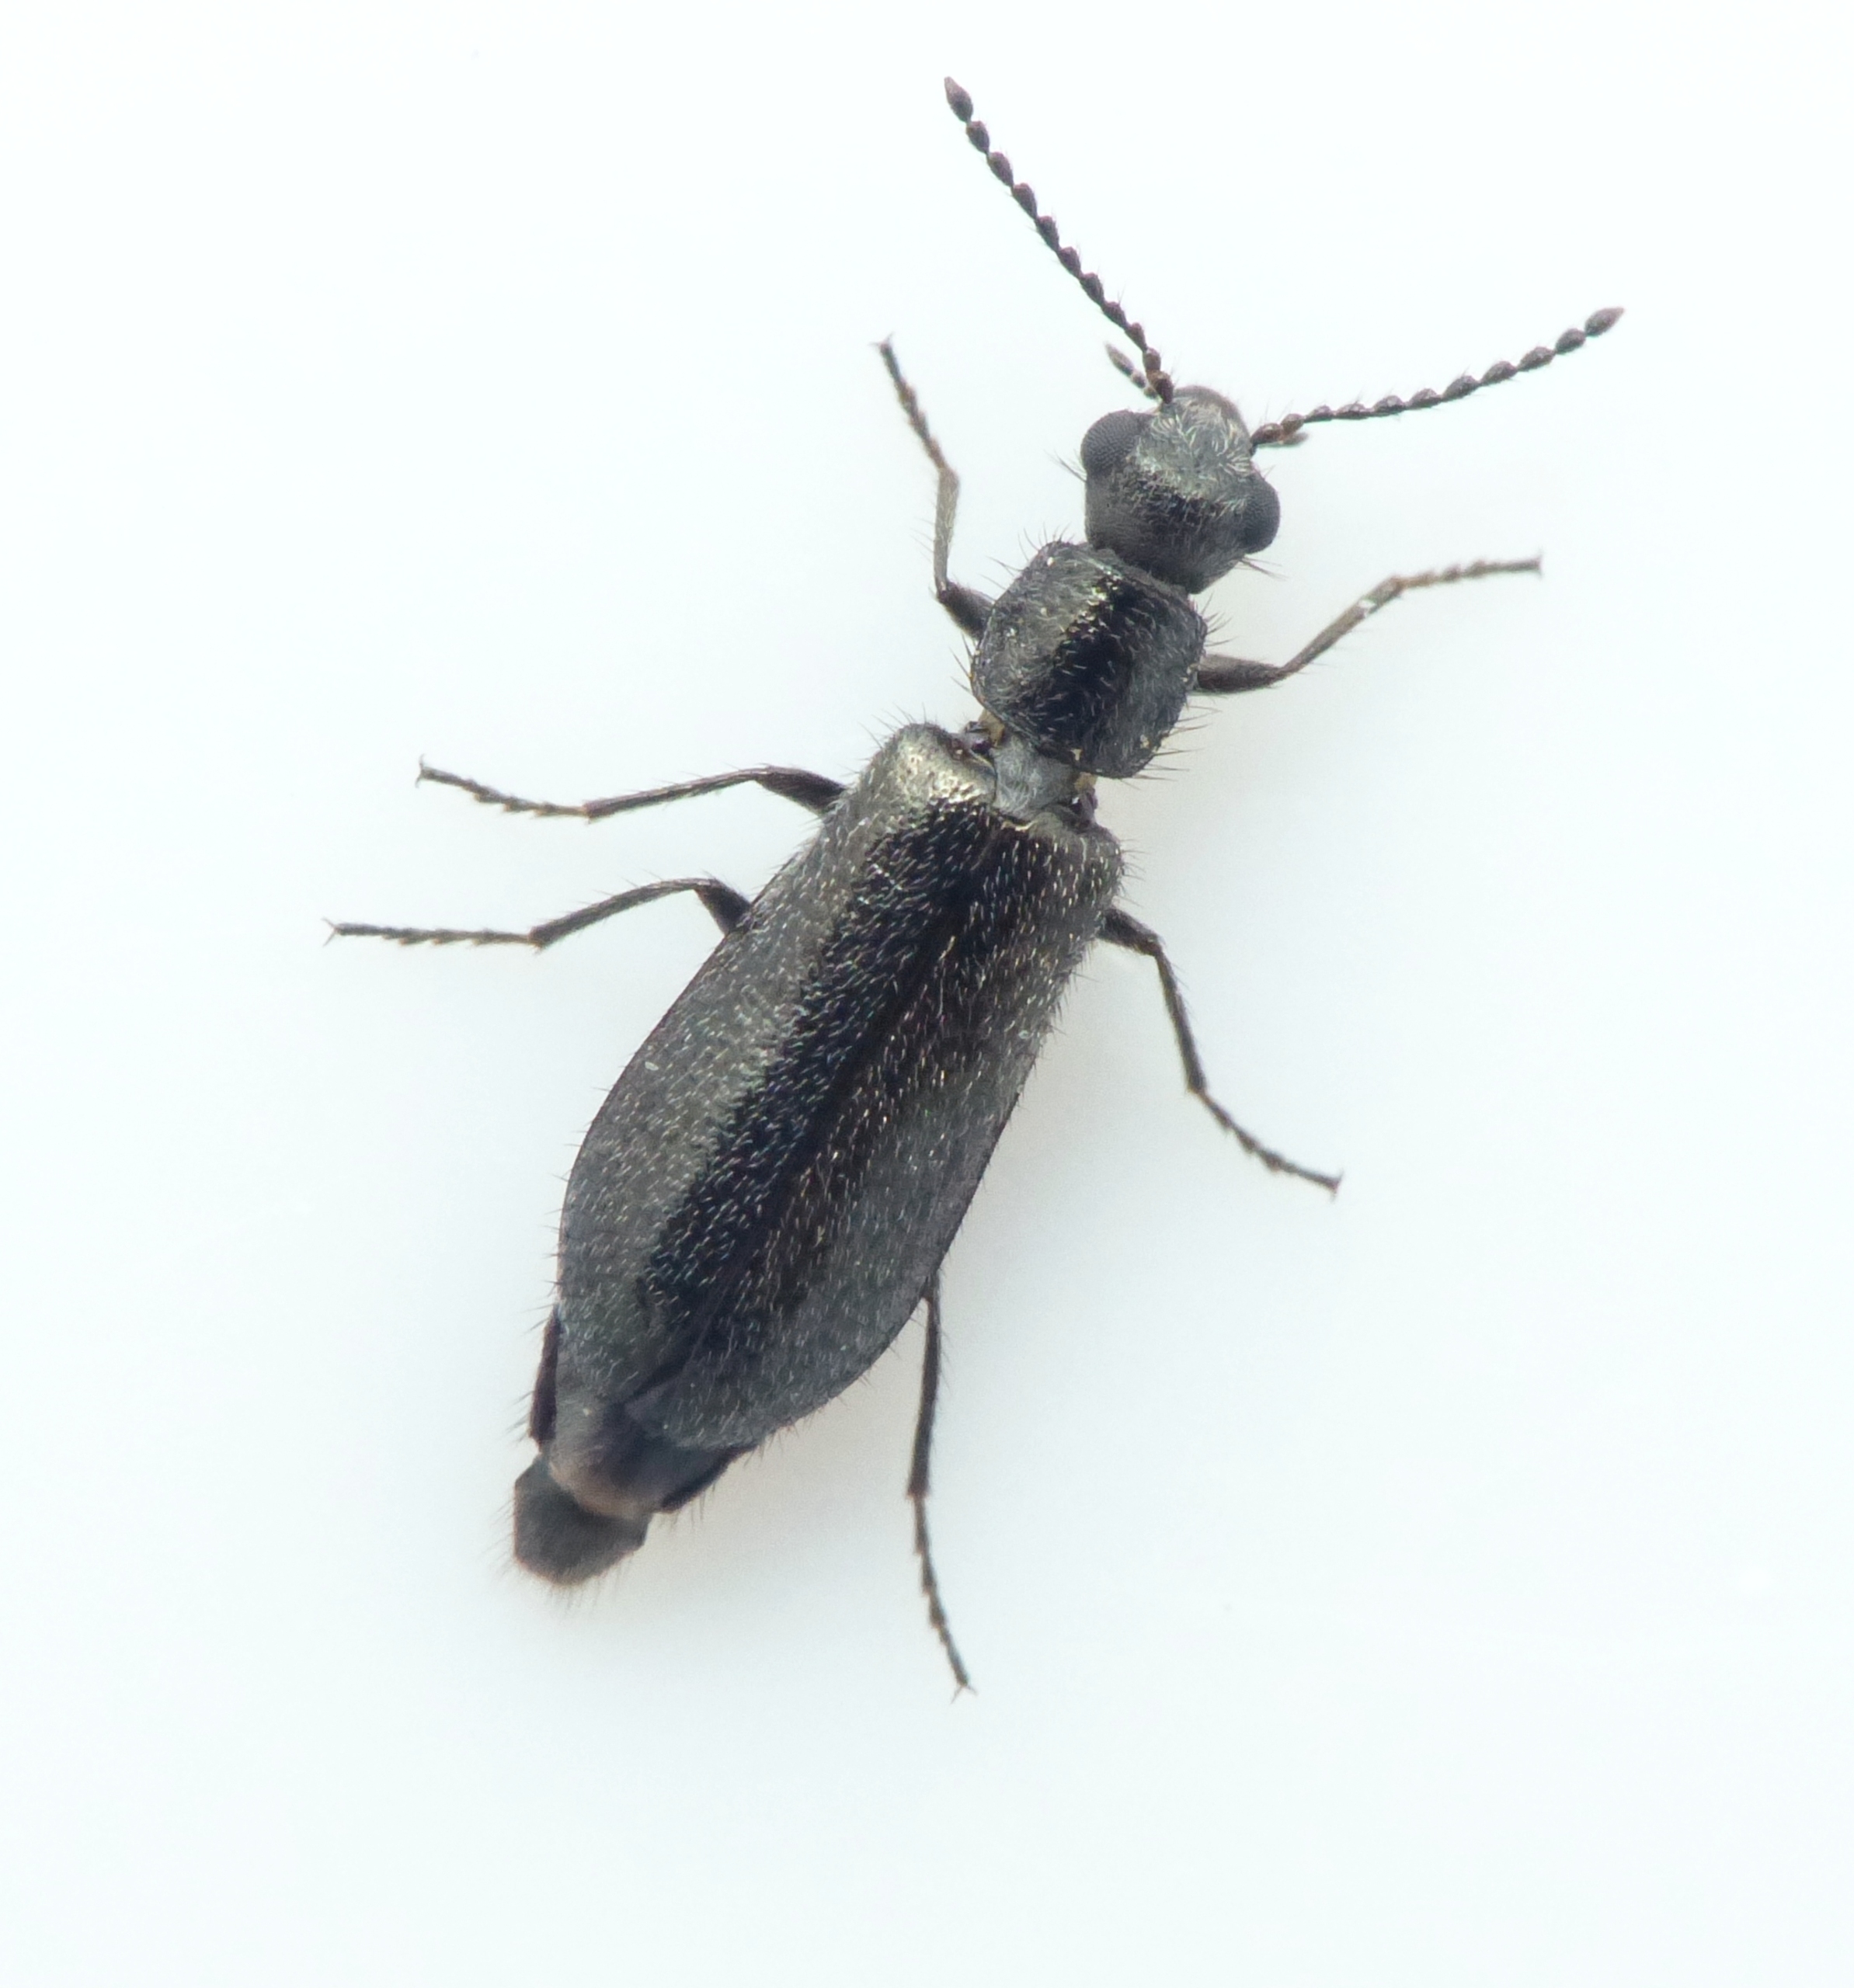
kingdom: Animalia
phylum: Arthropoda
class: Insecta
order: Coleoptera
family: Melyridae
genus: Dasytes
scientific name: Dasytes aeratus
